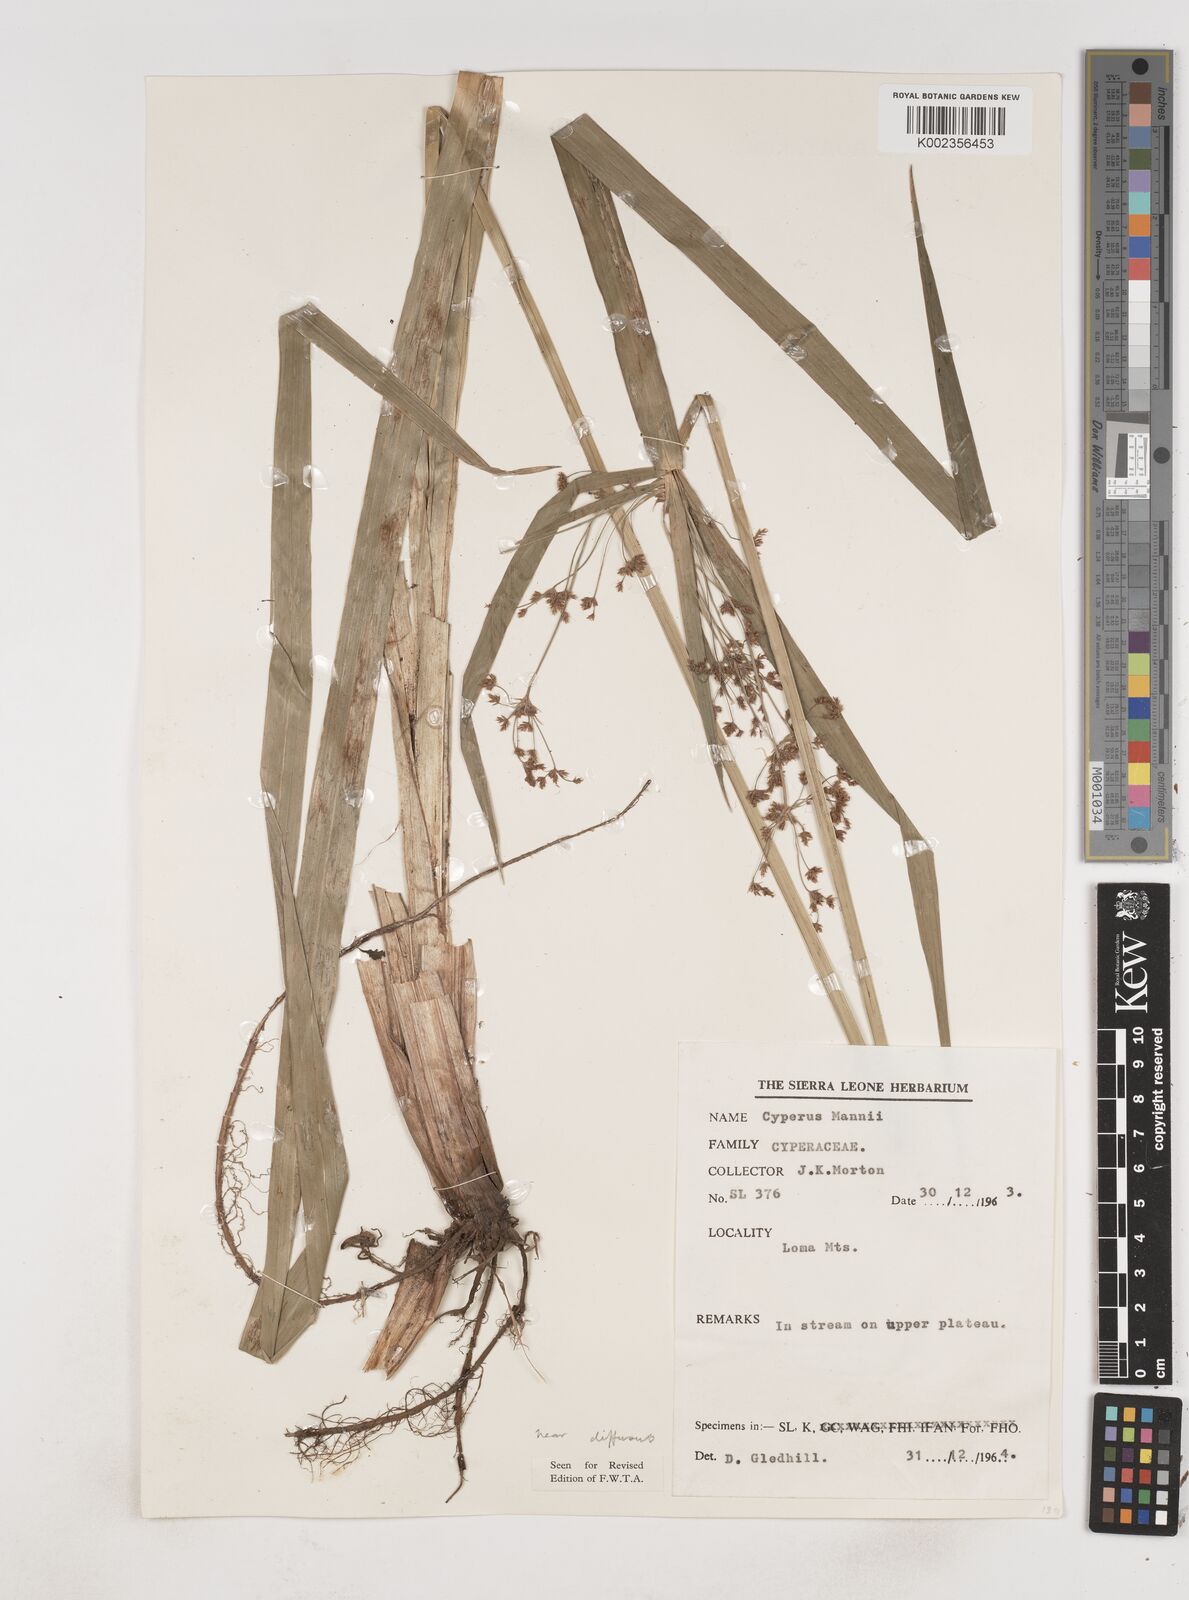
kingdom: Plantae
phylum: Tracheophyta
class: Liliopsida
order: Poales
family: Cyperaceae
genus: Cyperus
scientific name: Cyperus baronii
